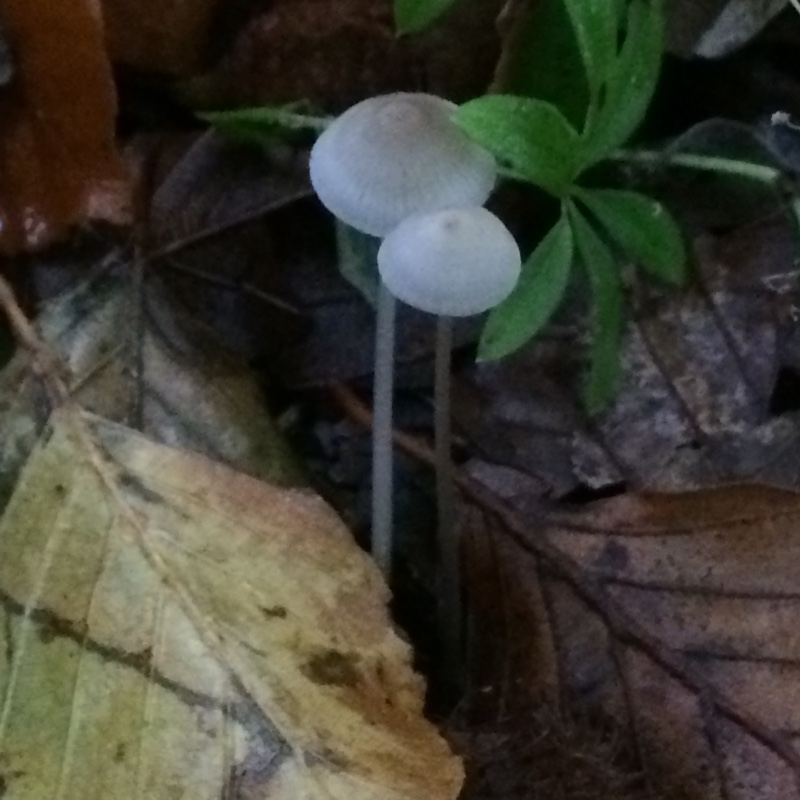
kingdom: Fungi
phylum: Basidiomycota
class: Agaricomycetes
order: Agaricales
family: Mycenaceae
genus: Mycena
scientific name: Mycena
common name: huesvamp
